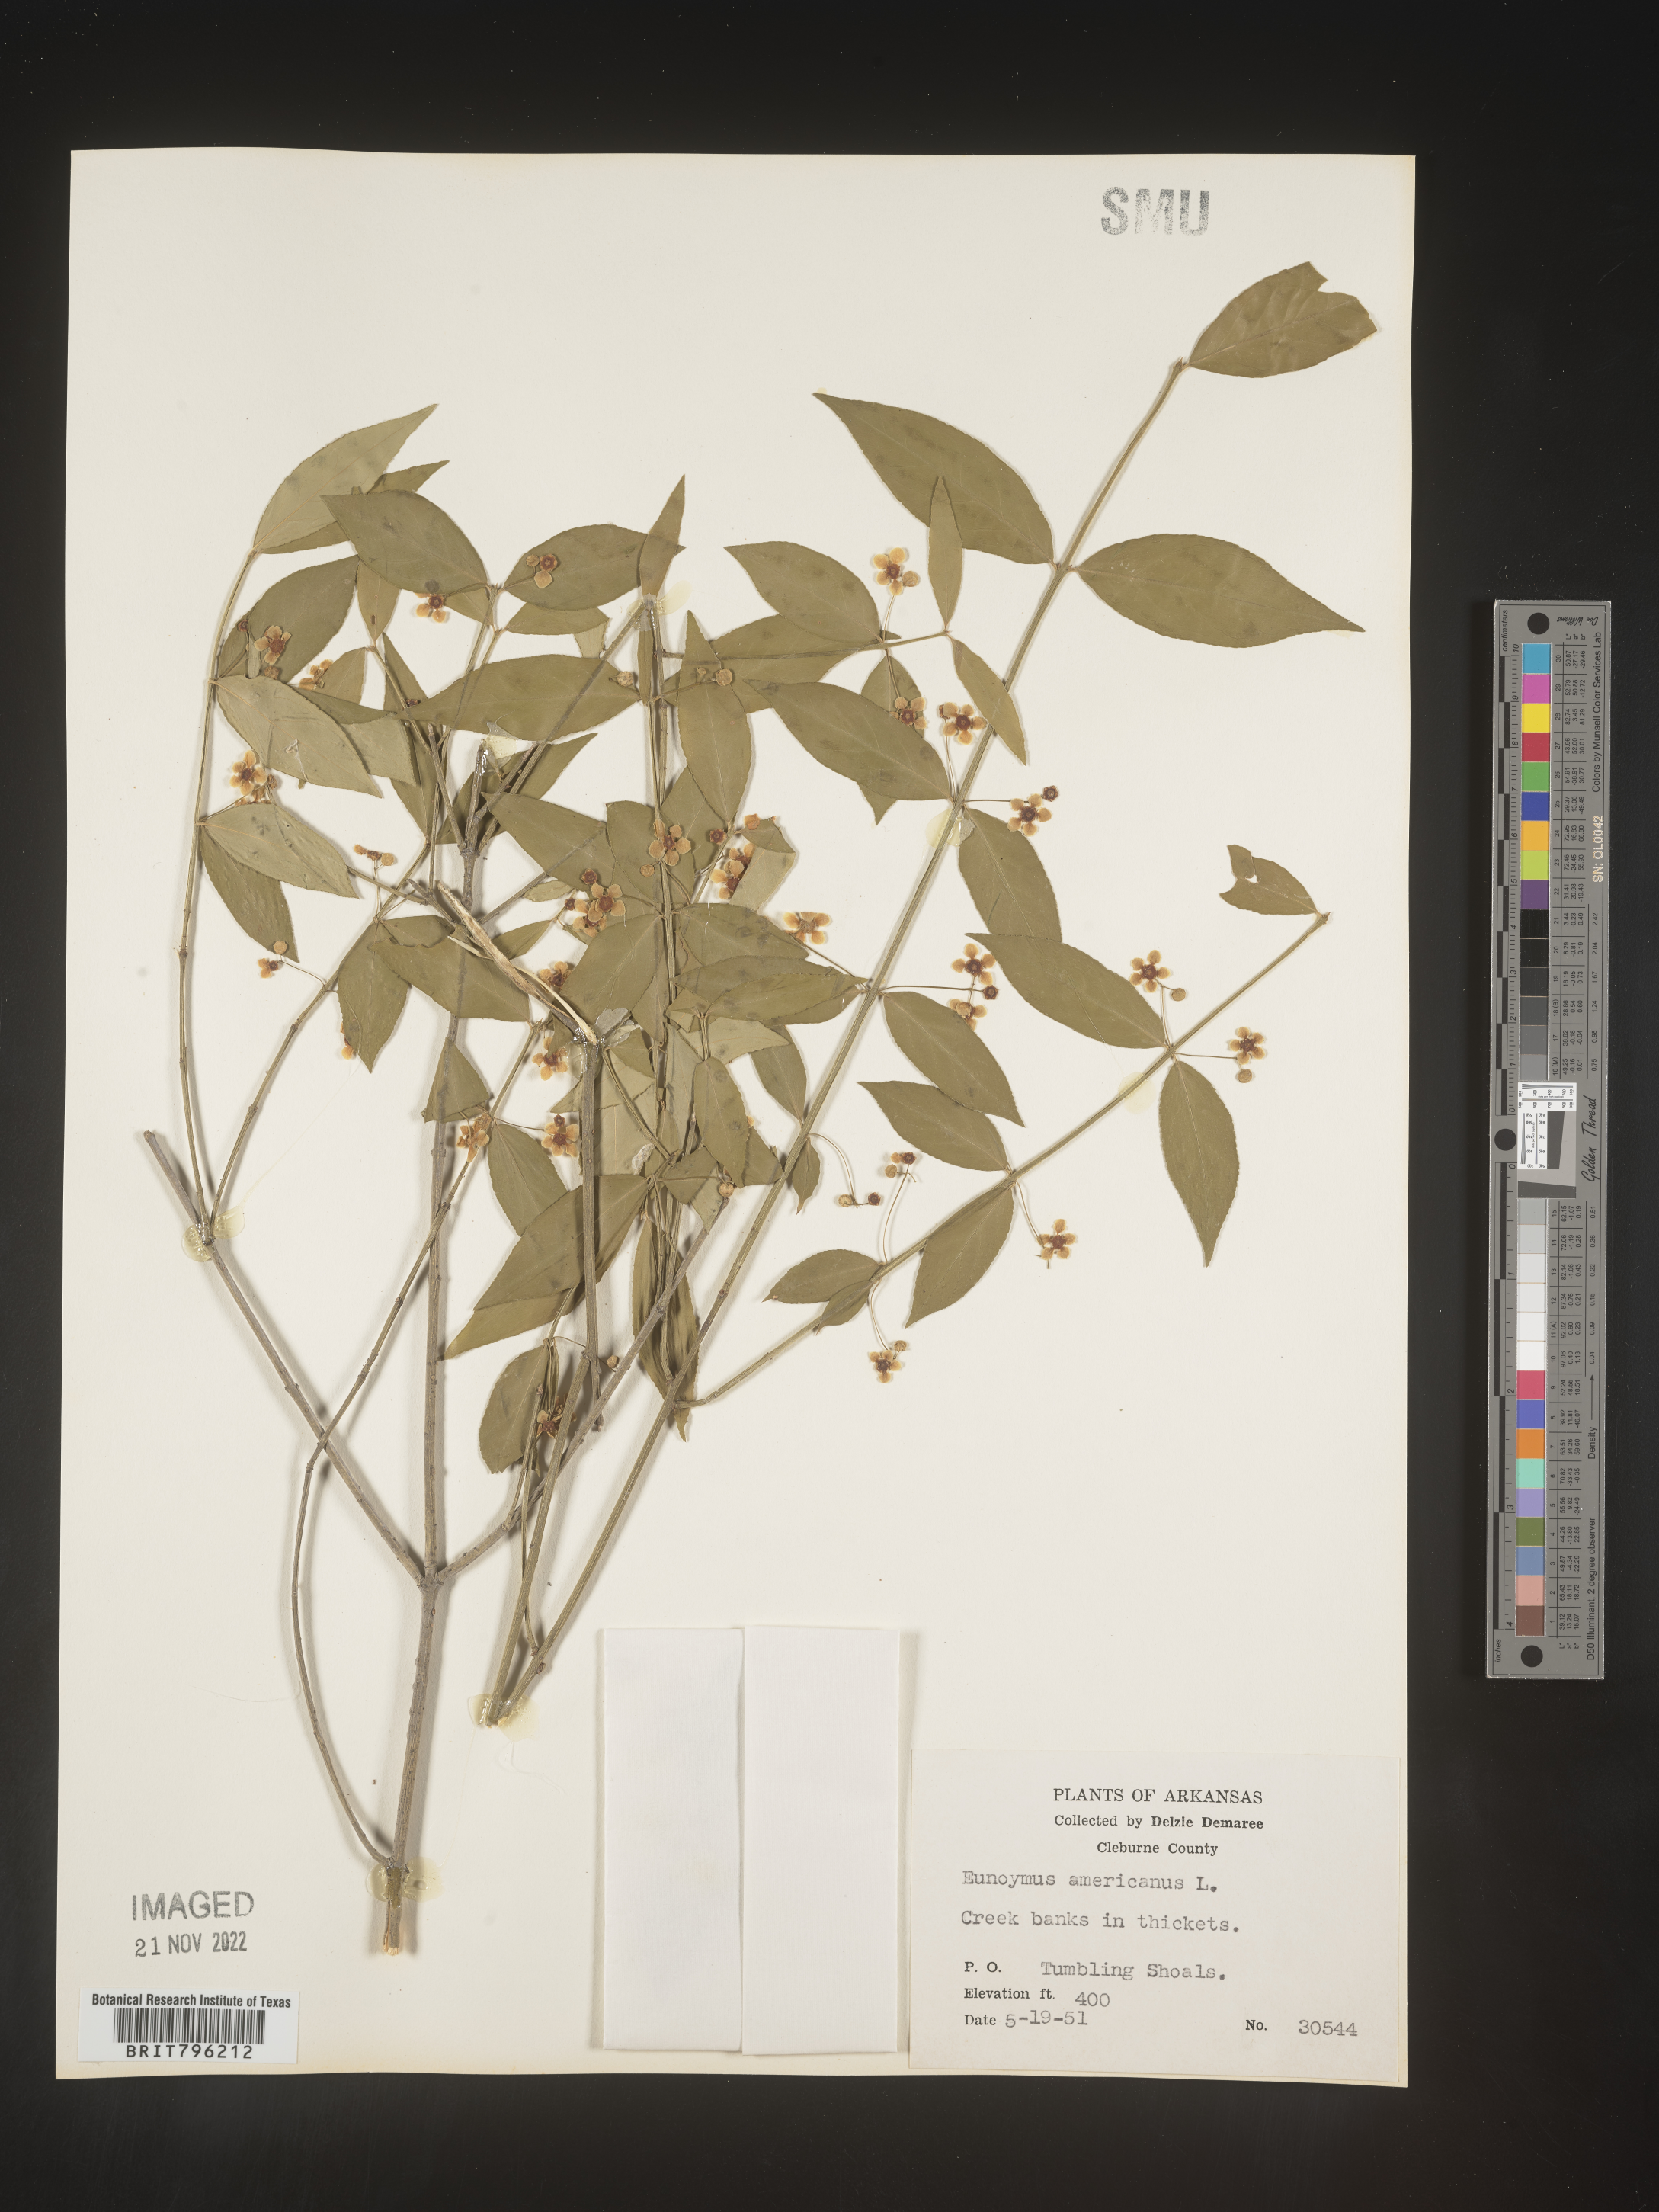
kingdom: Plantae
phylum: Tracheophyta
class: Magnoliopsida
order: Celastrales
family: Celastraceae
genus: Euonymus
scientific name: Euonymus americanus
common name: Bursting-heart
